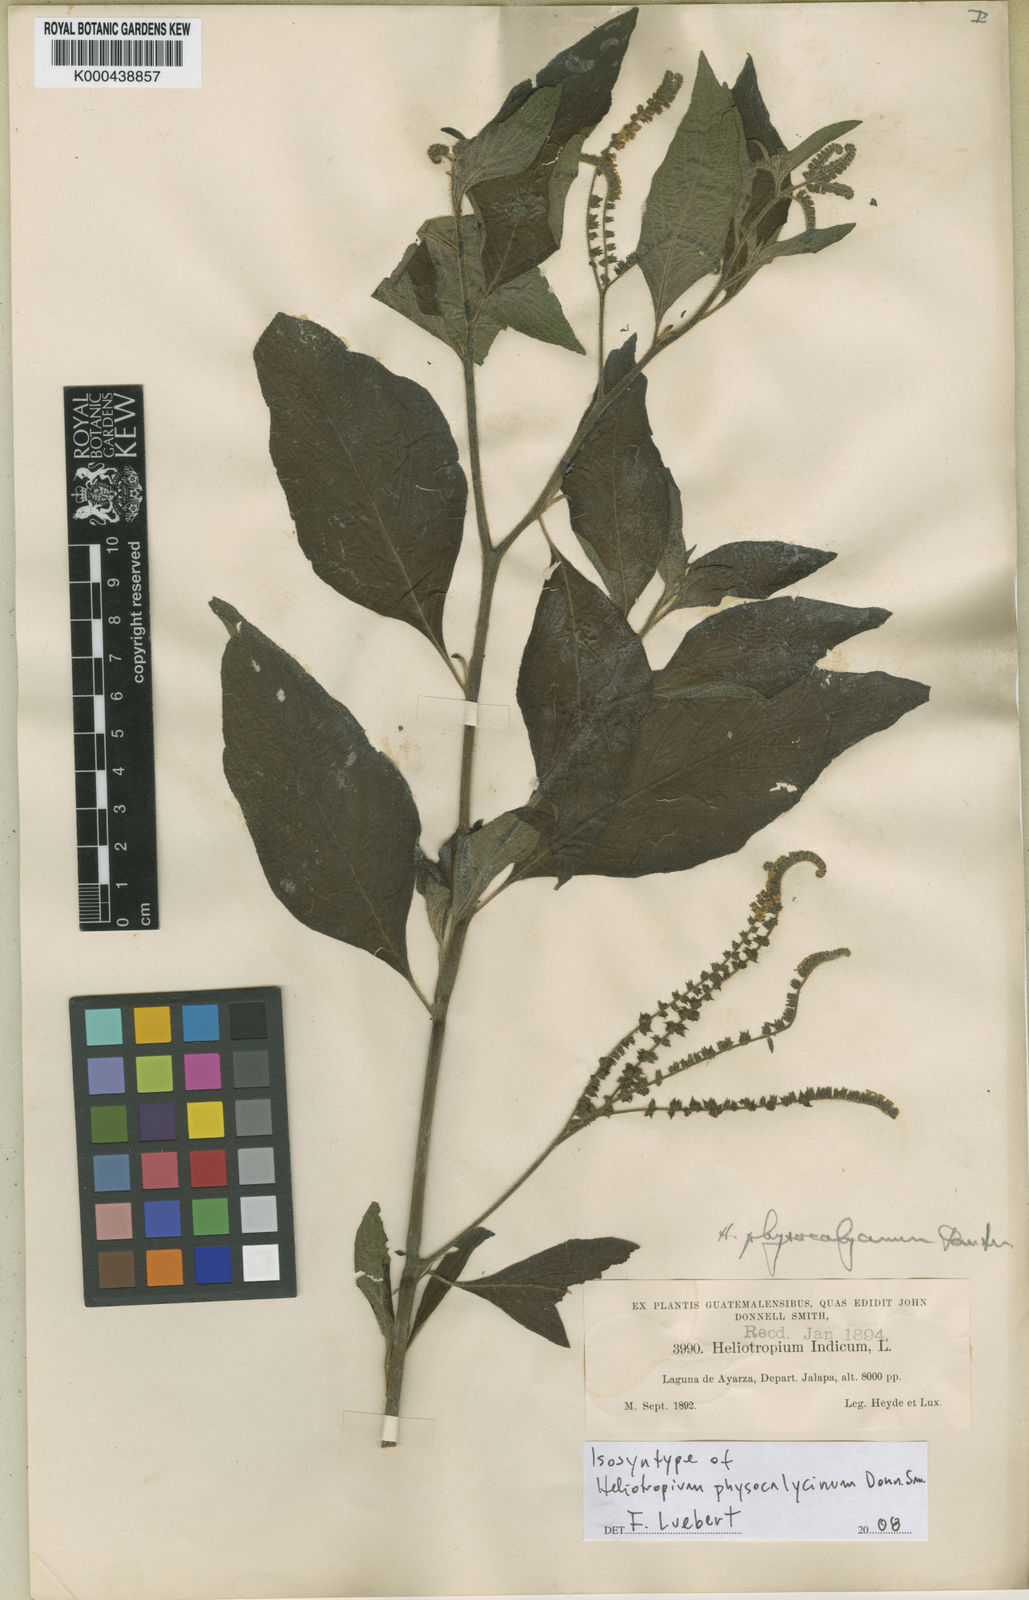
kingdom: Plantae
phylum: Tracheophyta
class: Magnoliopsida
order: Boraginales
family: Heliotropiaceae
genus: Heliotropium
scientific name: Heliotropium rufipilum
